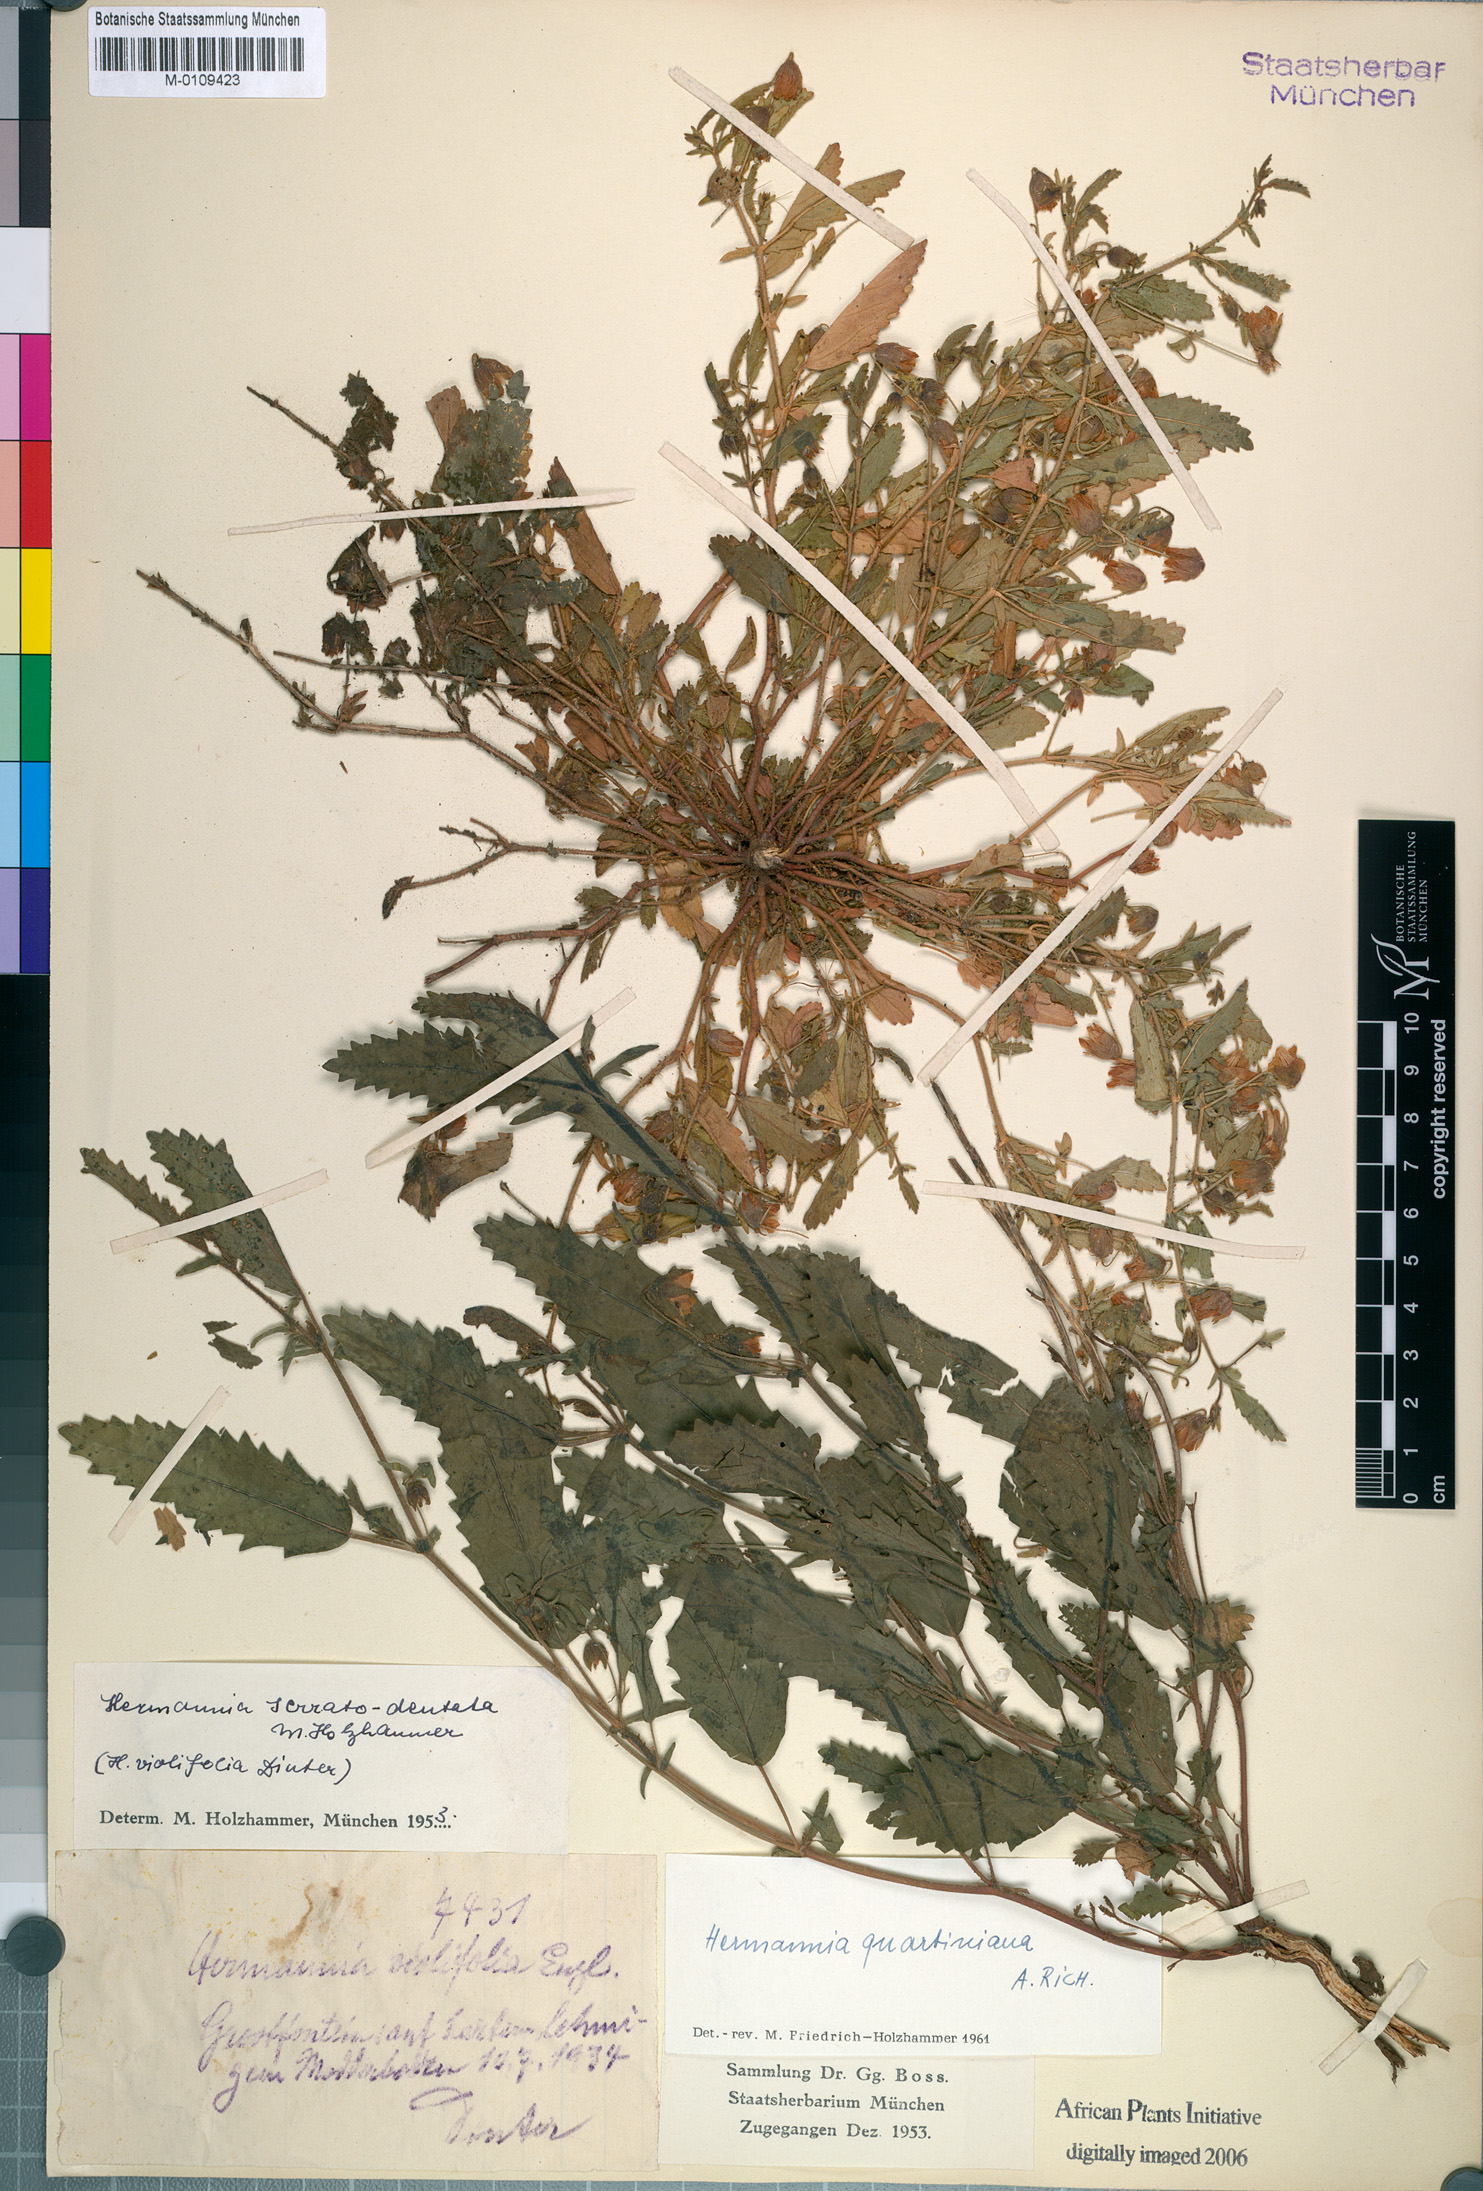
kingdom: Plantae
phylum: Tracheophyta
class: Magnoliopsida
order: Malvales
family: Malvaceae
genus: Hermannia
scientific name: Hermannia quartiniana
